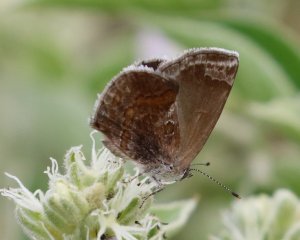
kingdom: Animalia
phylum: Arthropoda
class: Insecta
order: Lepidoptera
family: Lycaenidae
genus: Strymon
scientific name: Strymon bazochii
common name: Lantana Scrub-Hairstreak
